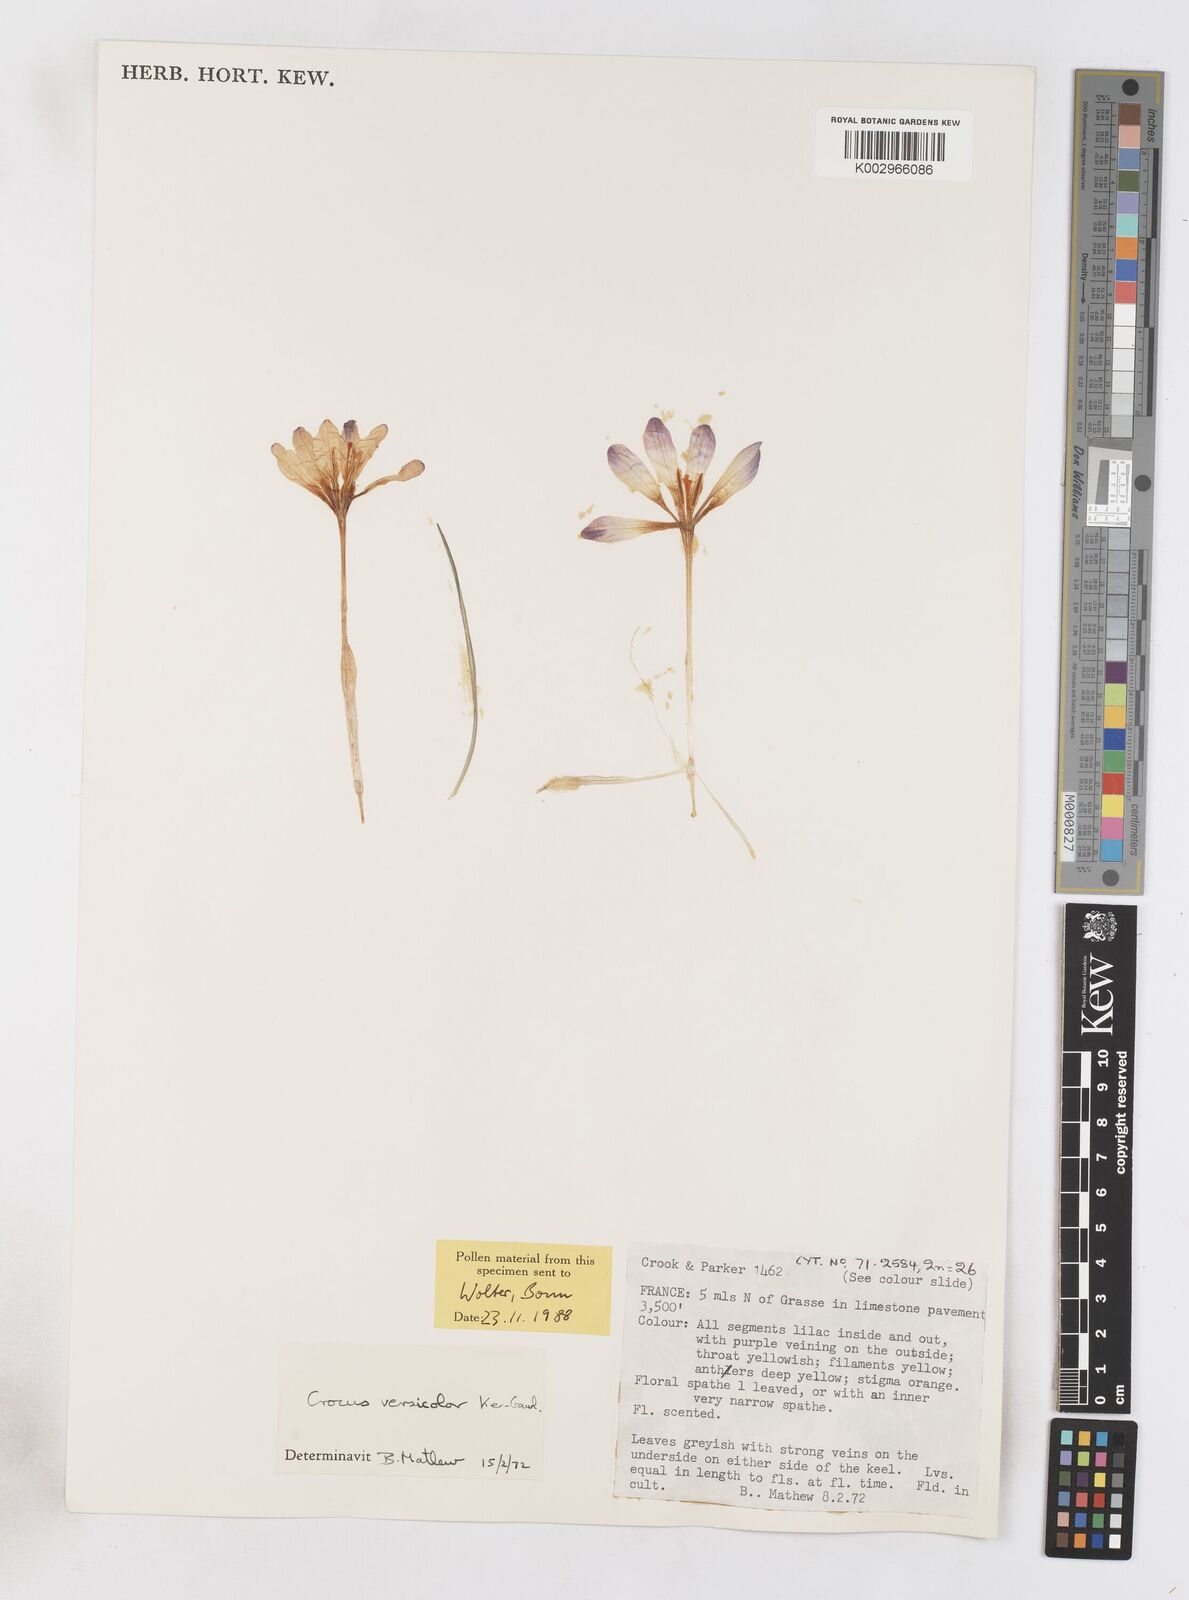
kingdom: Plantae
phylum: Tracheophyta
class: Liliopsida
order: Asparagales
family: Iridaceae
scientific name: Iridaceae
